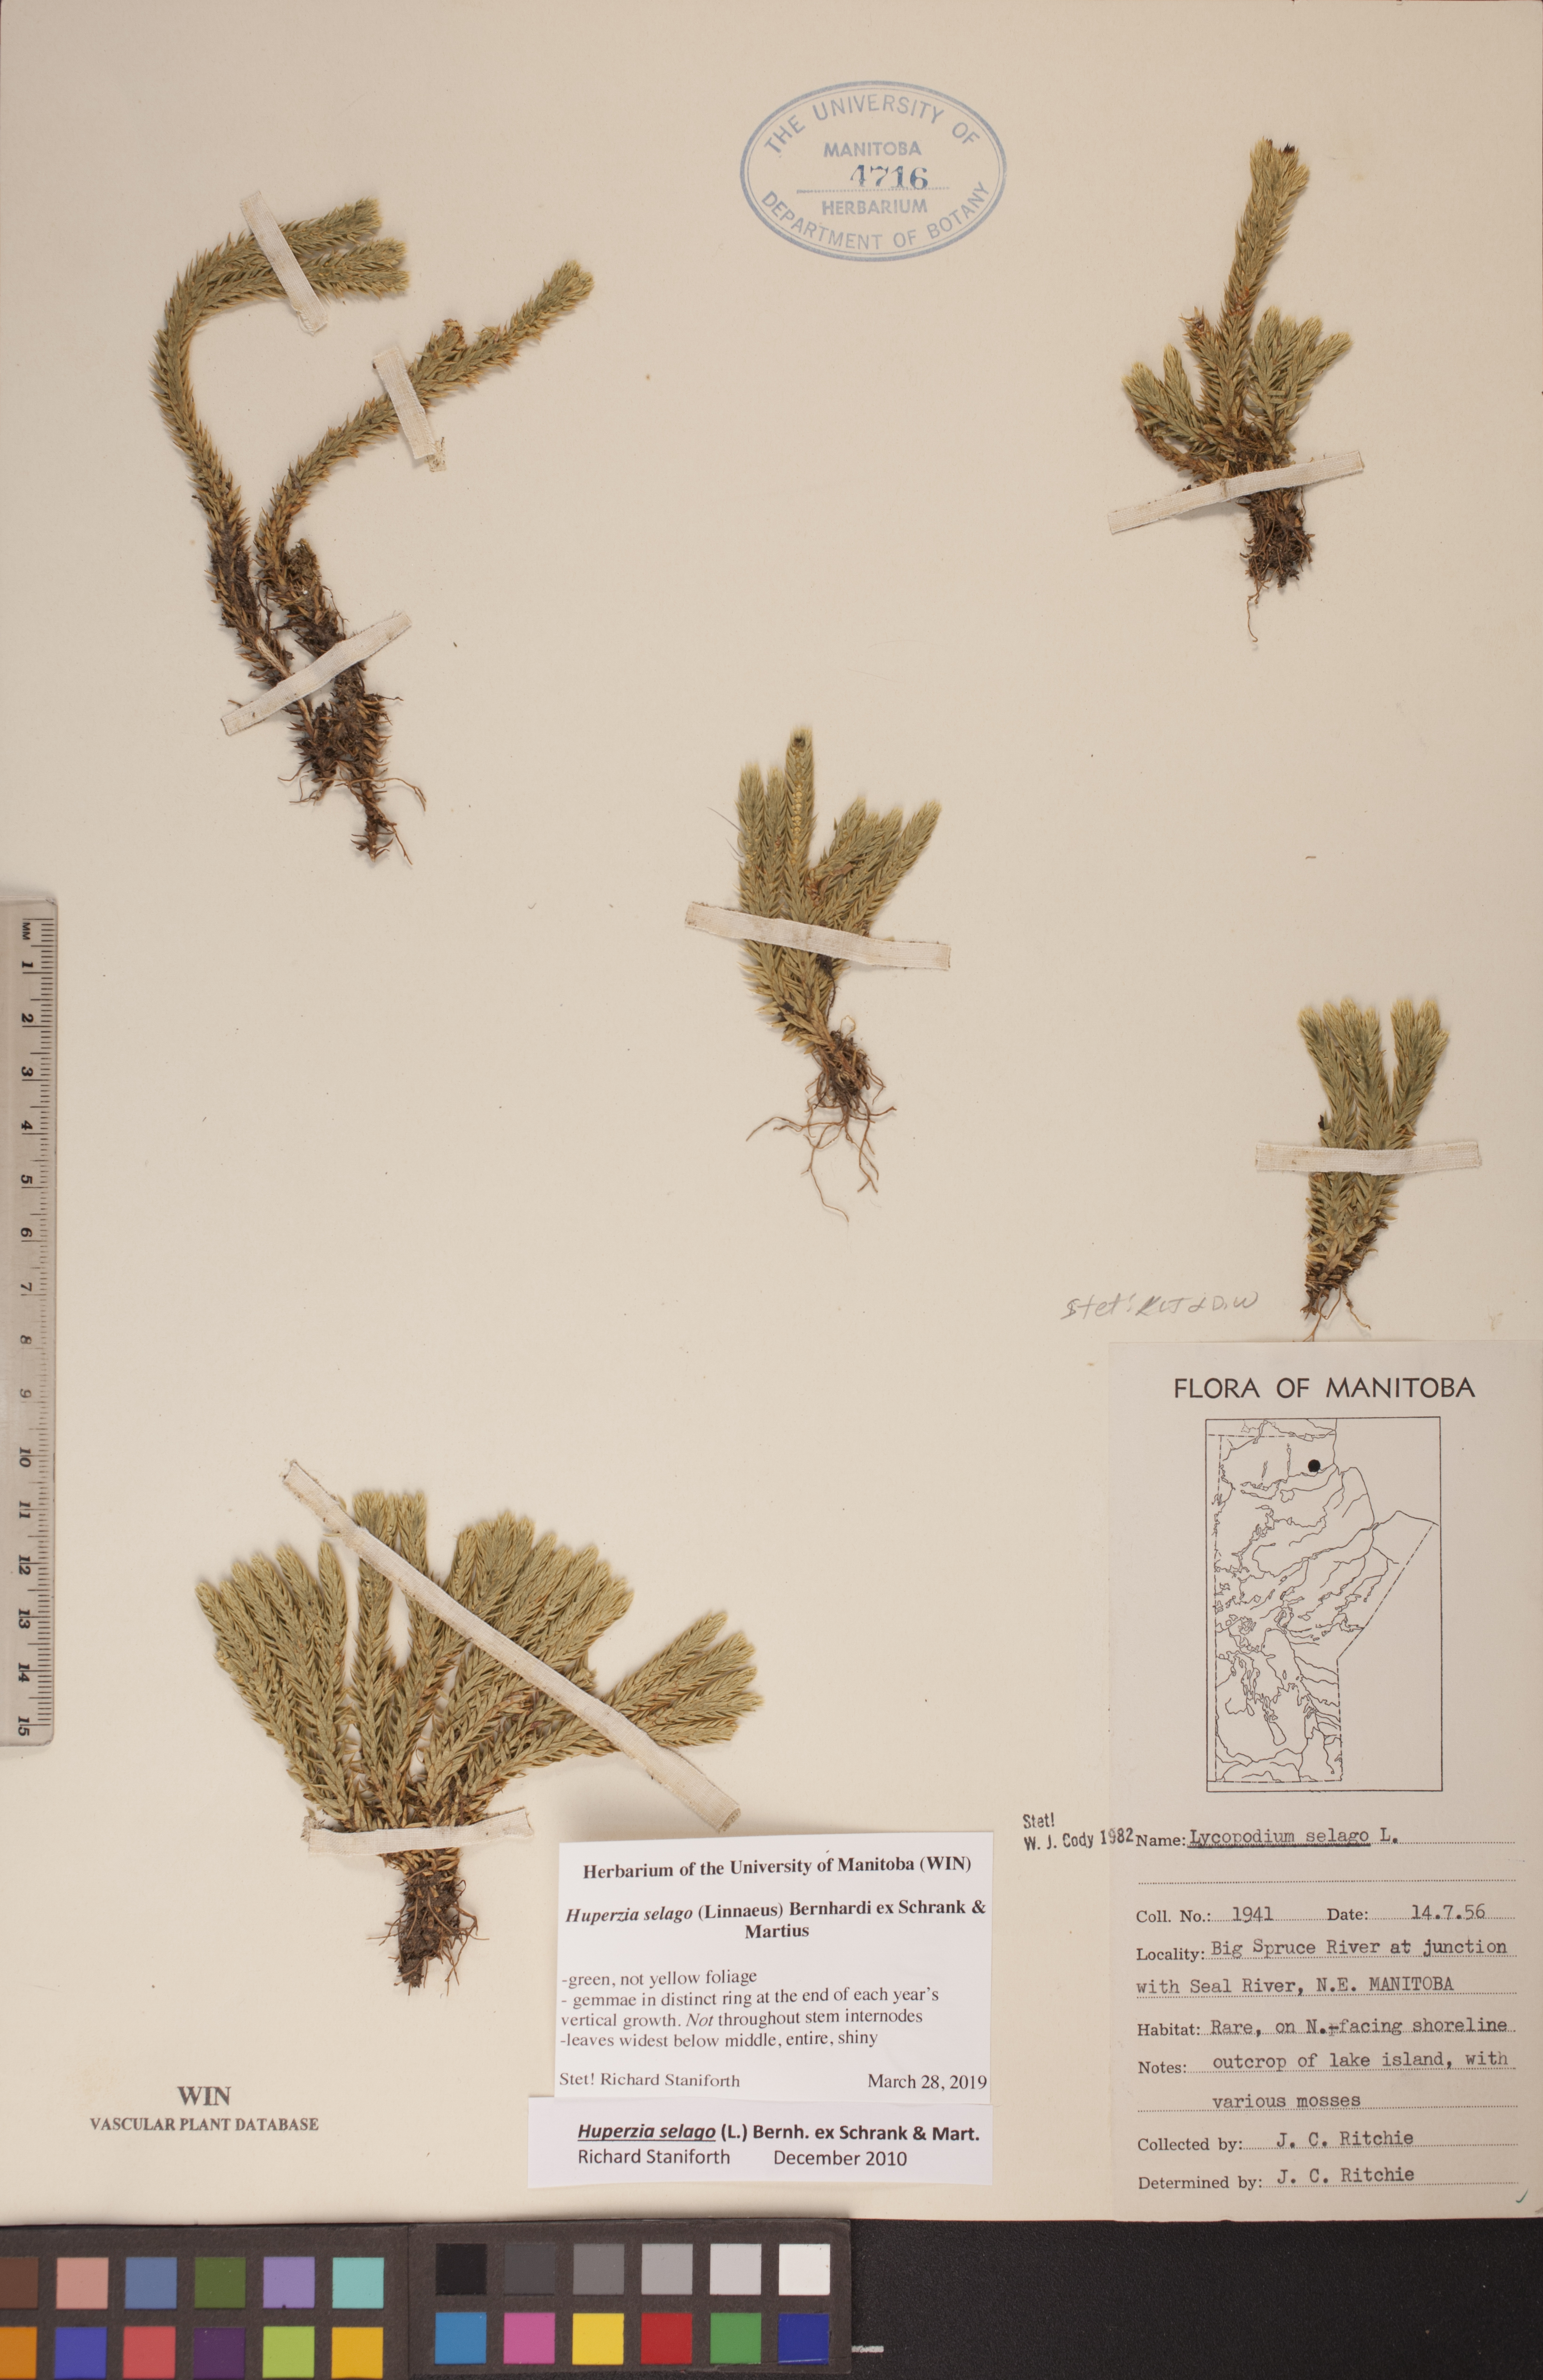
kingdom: Plantae
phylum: Tracheophyta
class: Lycopodiopsida
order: Lycopodiales
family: Lycopodiaceae
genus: Huperzia
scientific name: Huperzia selago
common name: Northern firmoss
